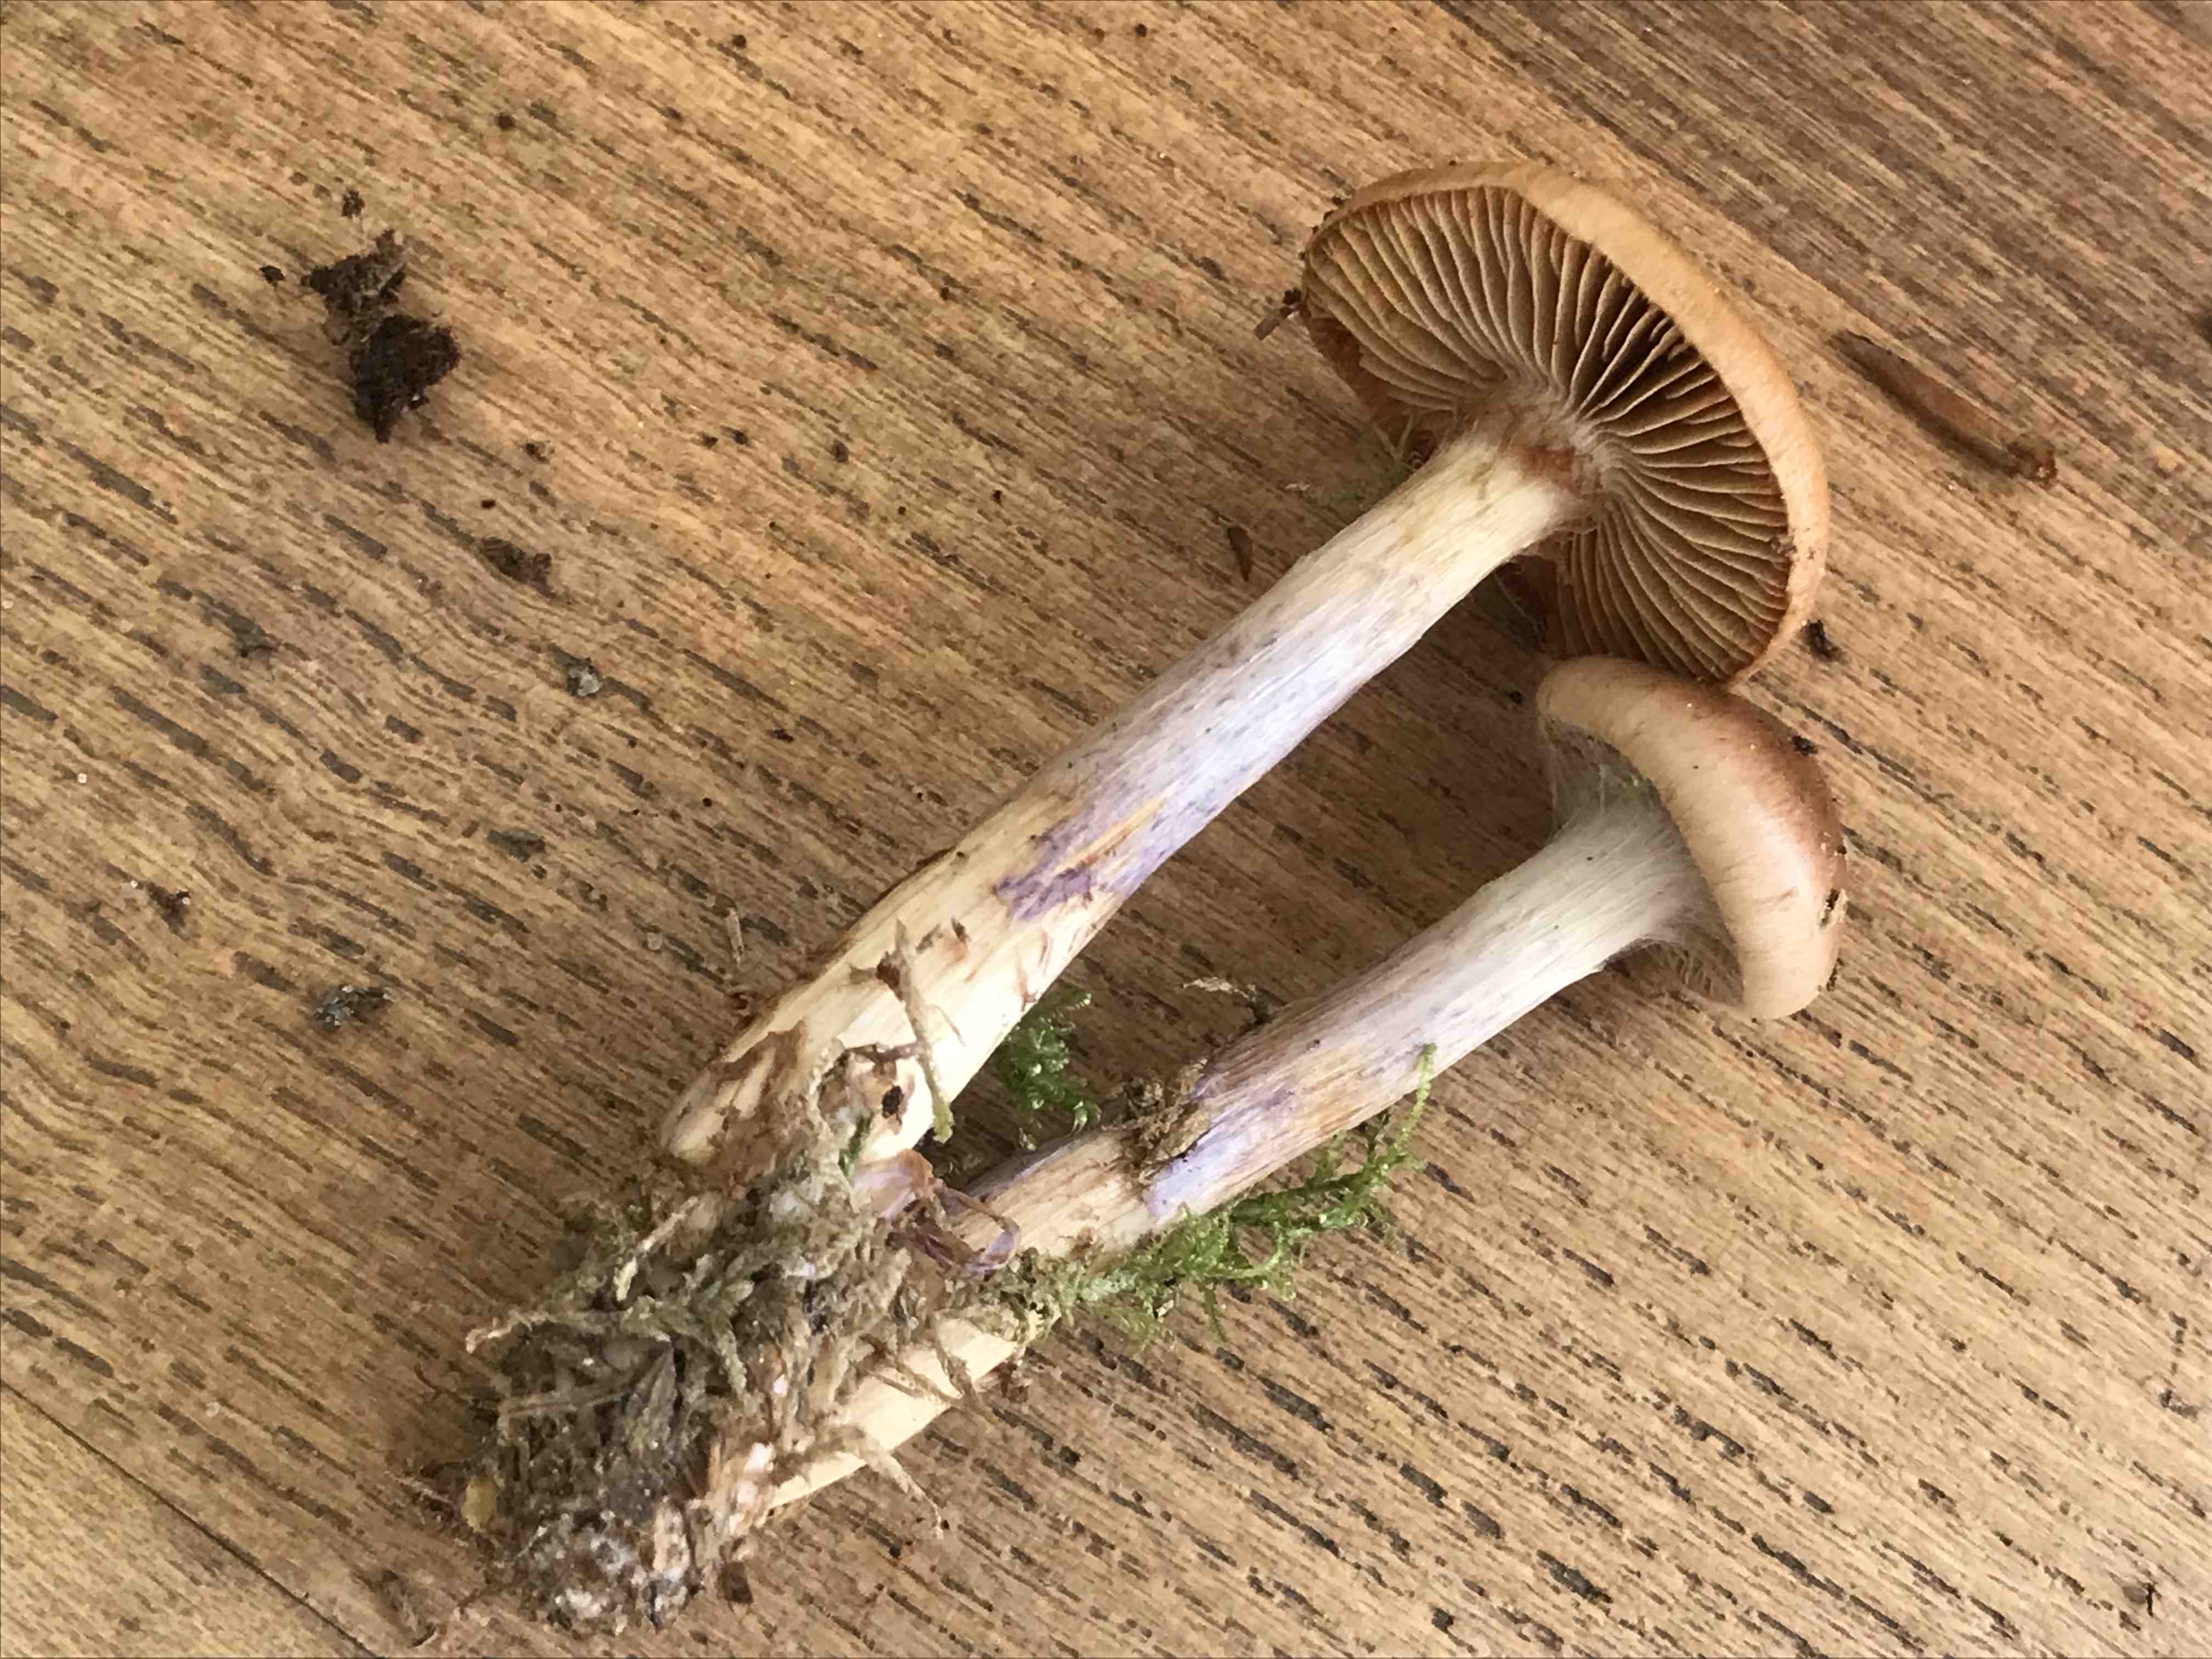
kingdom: Fungi
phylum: Basidiomycota
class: Agaricomycetes
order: Agaricales
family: Cortinariaceae
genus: Cortinarius
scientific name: Cortinarius stillatitius
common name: honningduftende slørhat
